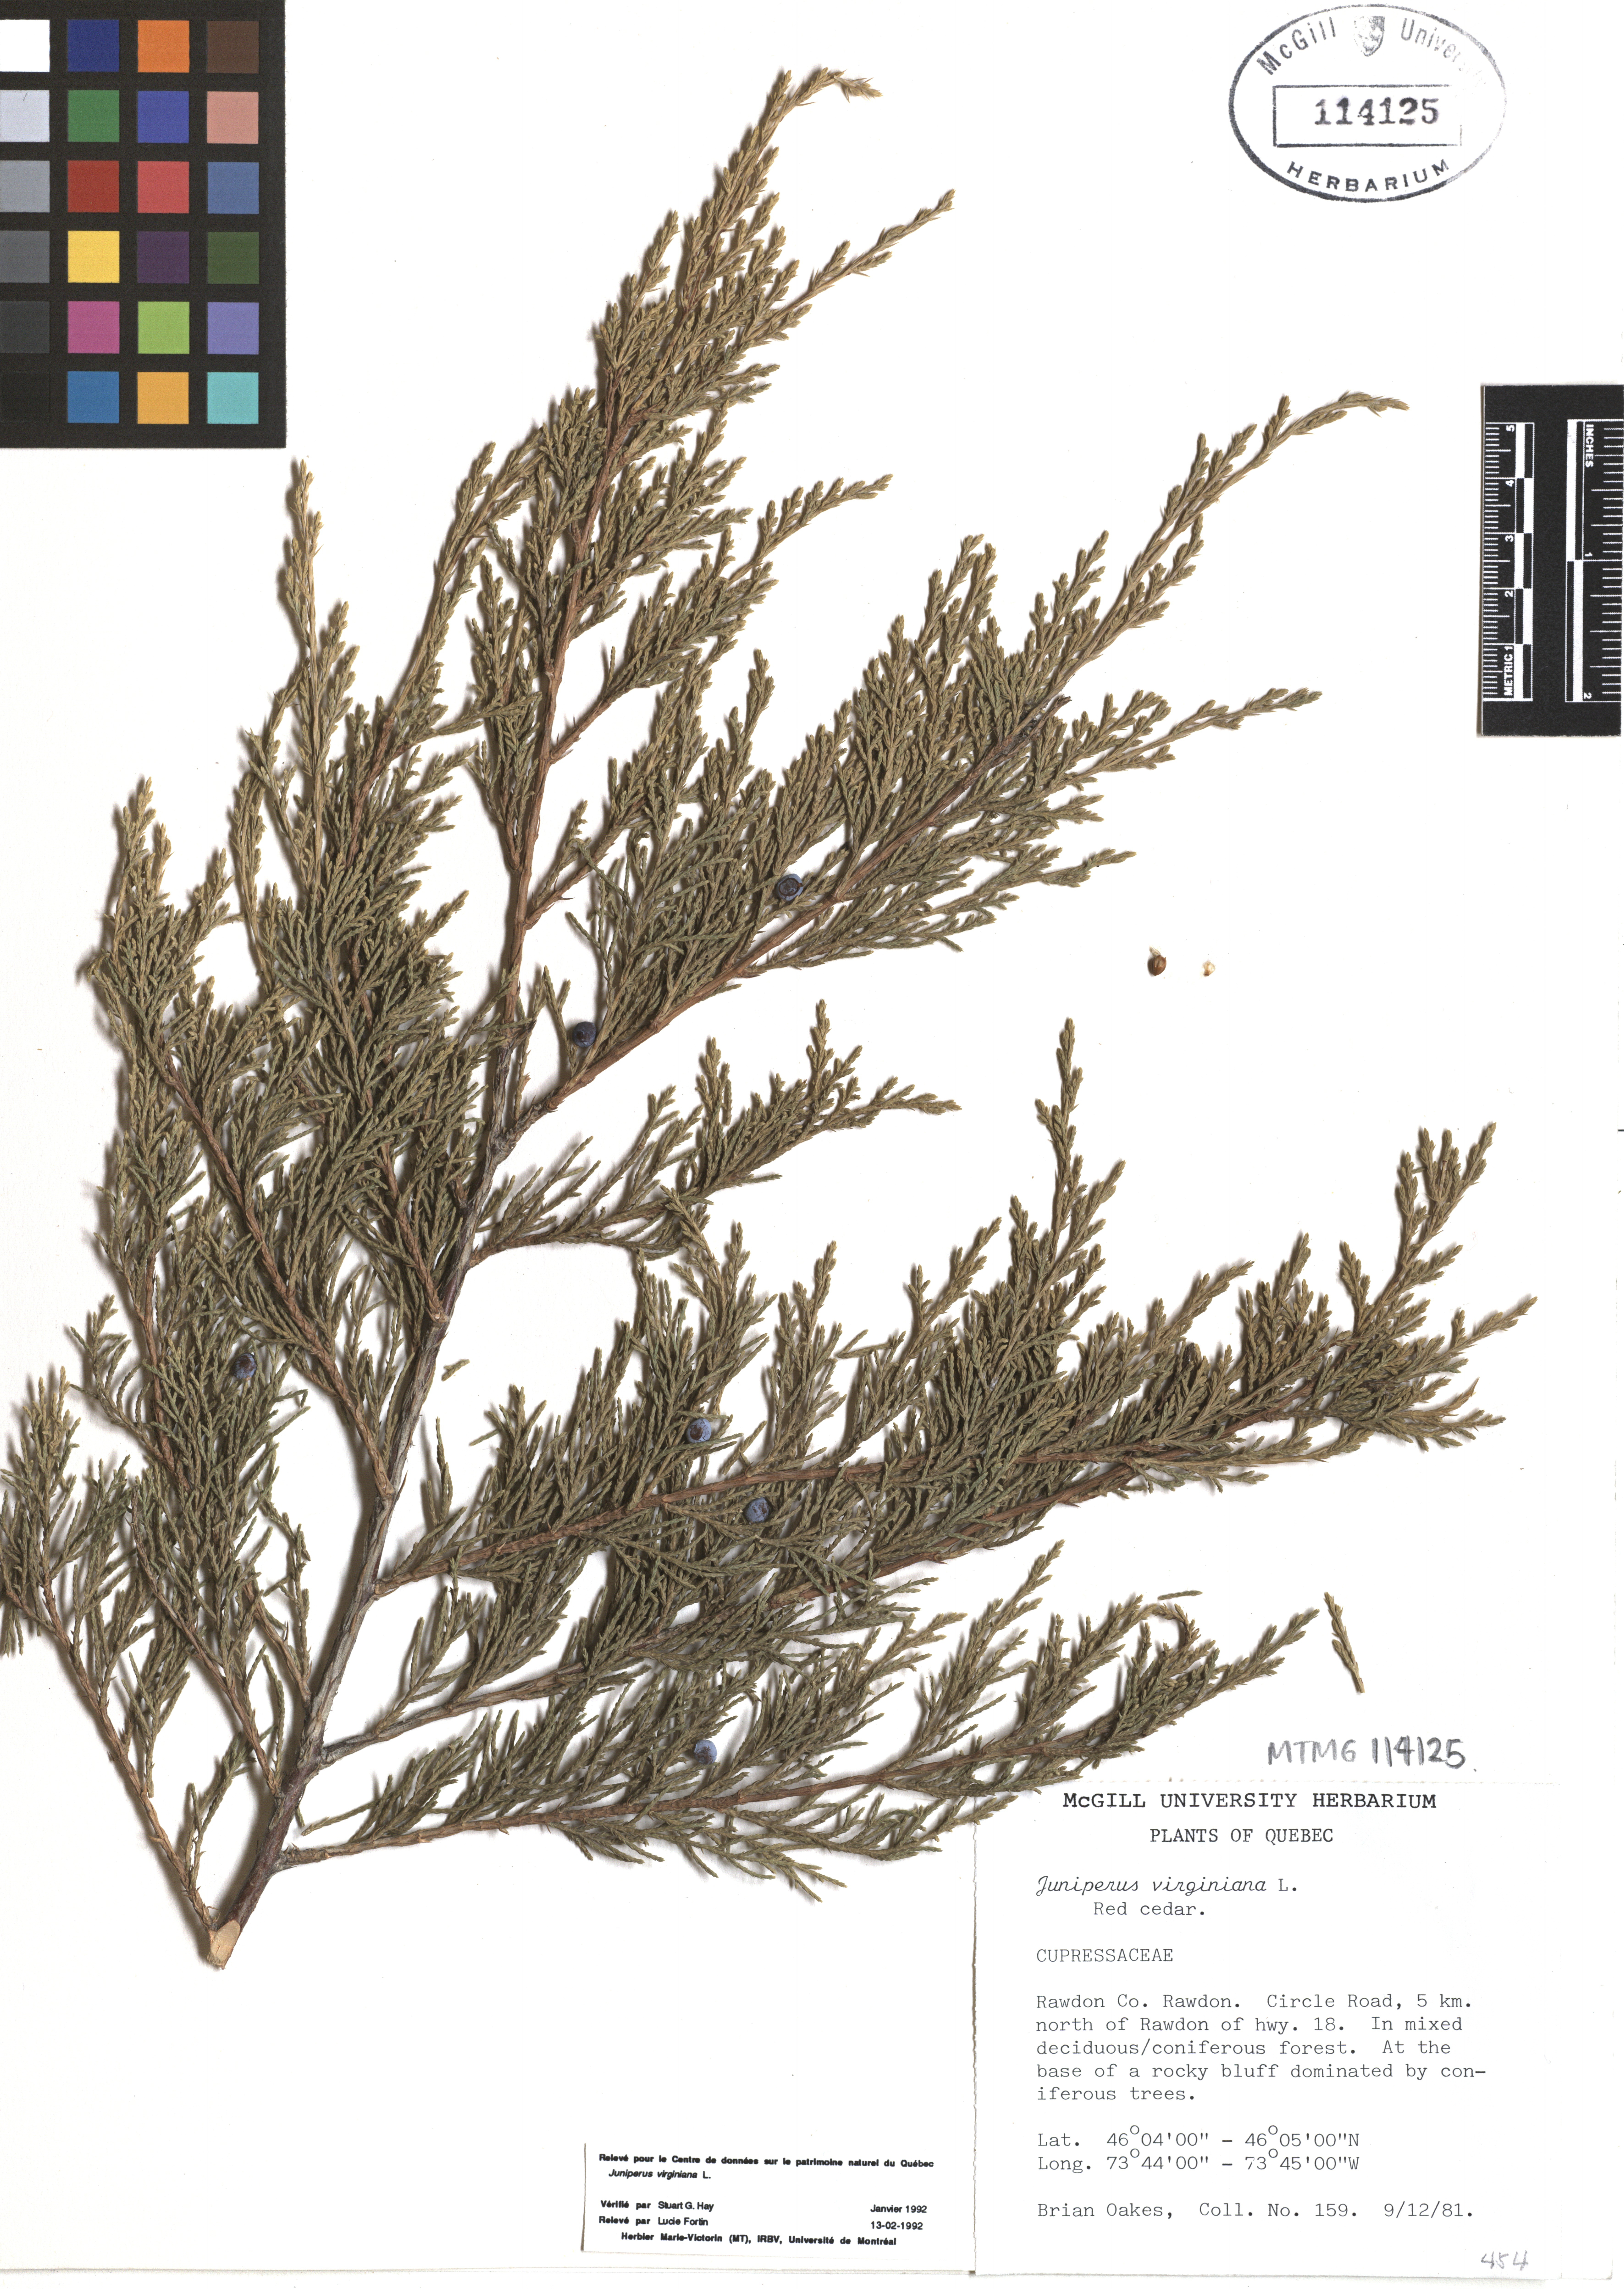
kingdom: Plantae
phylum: Tracheophyta
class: Pinopsida
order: Pinales
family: Cupressaceae
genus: Juniperus
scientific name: Juniperus virginiana
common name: Red juniper
